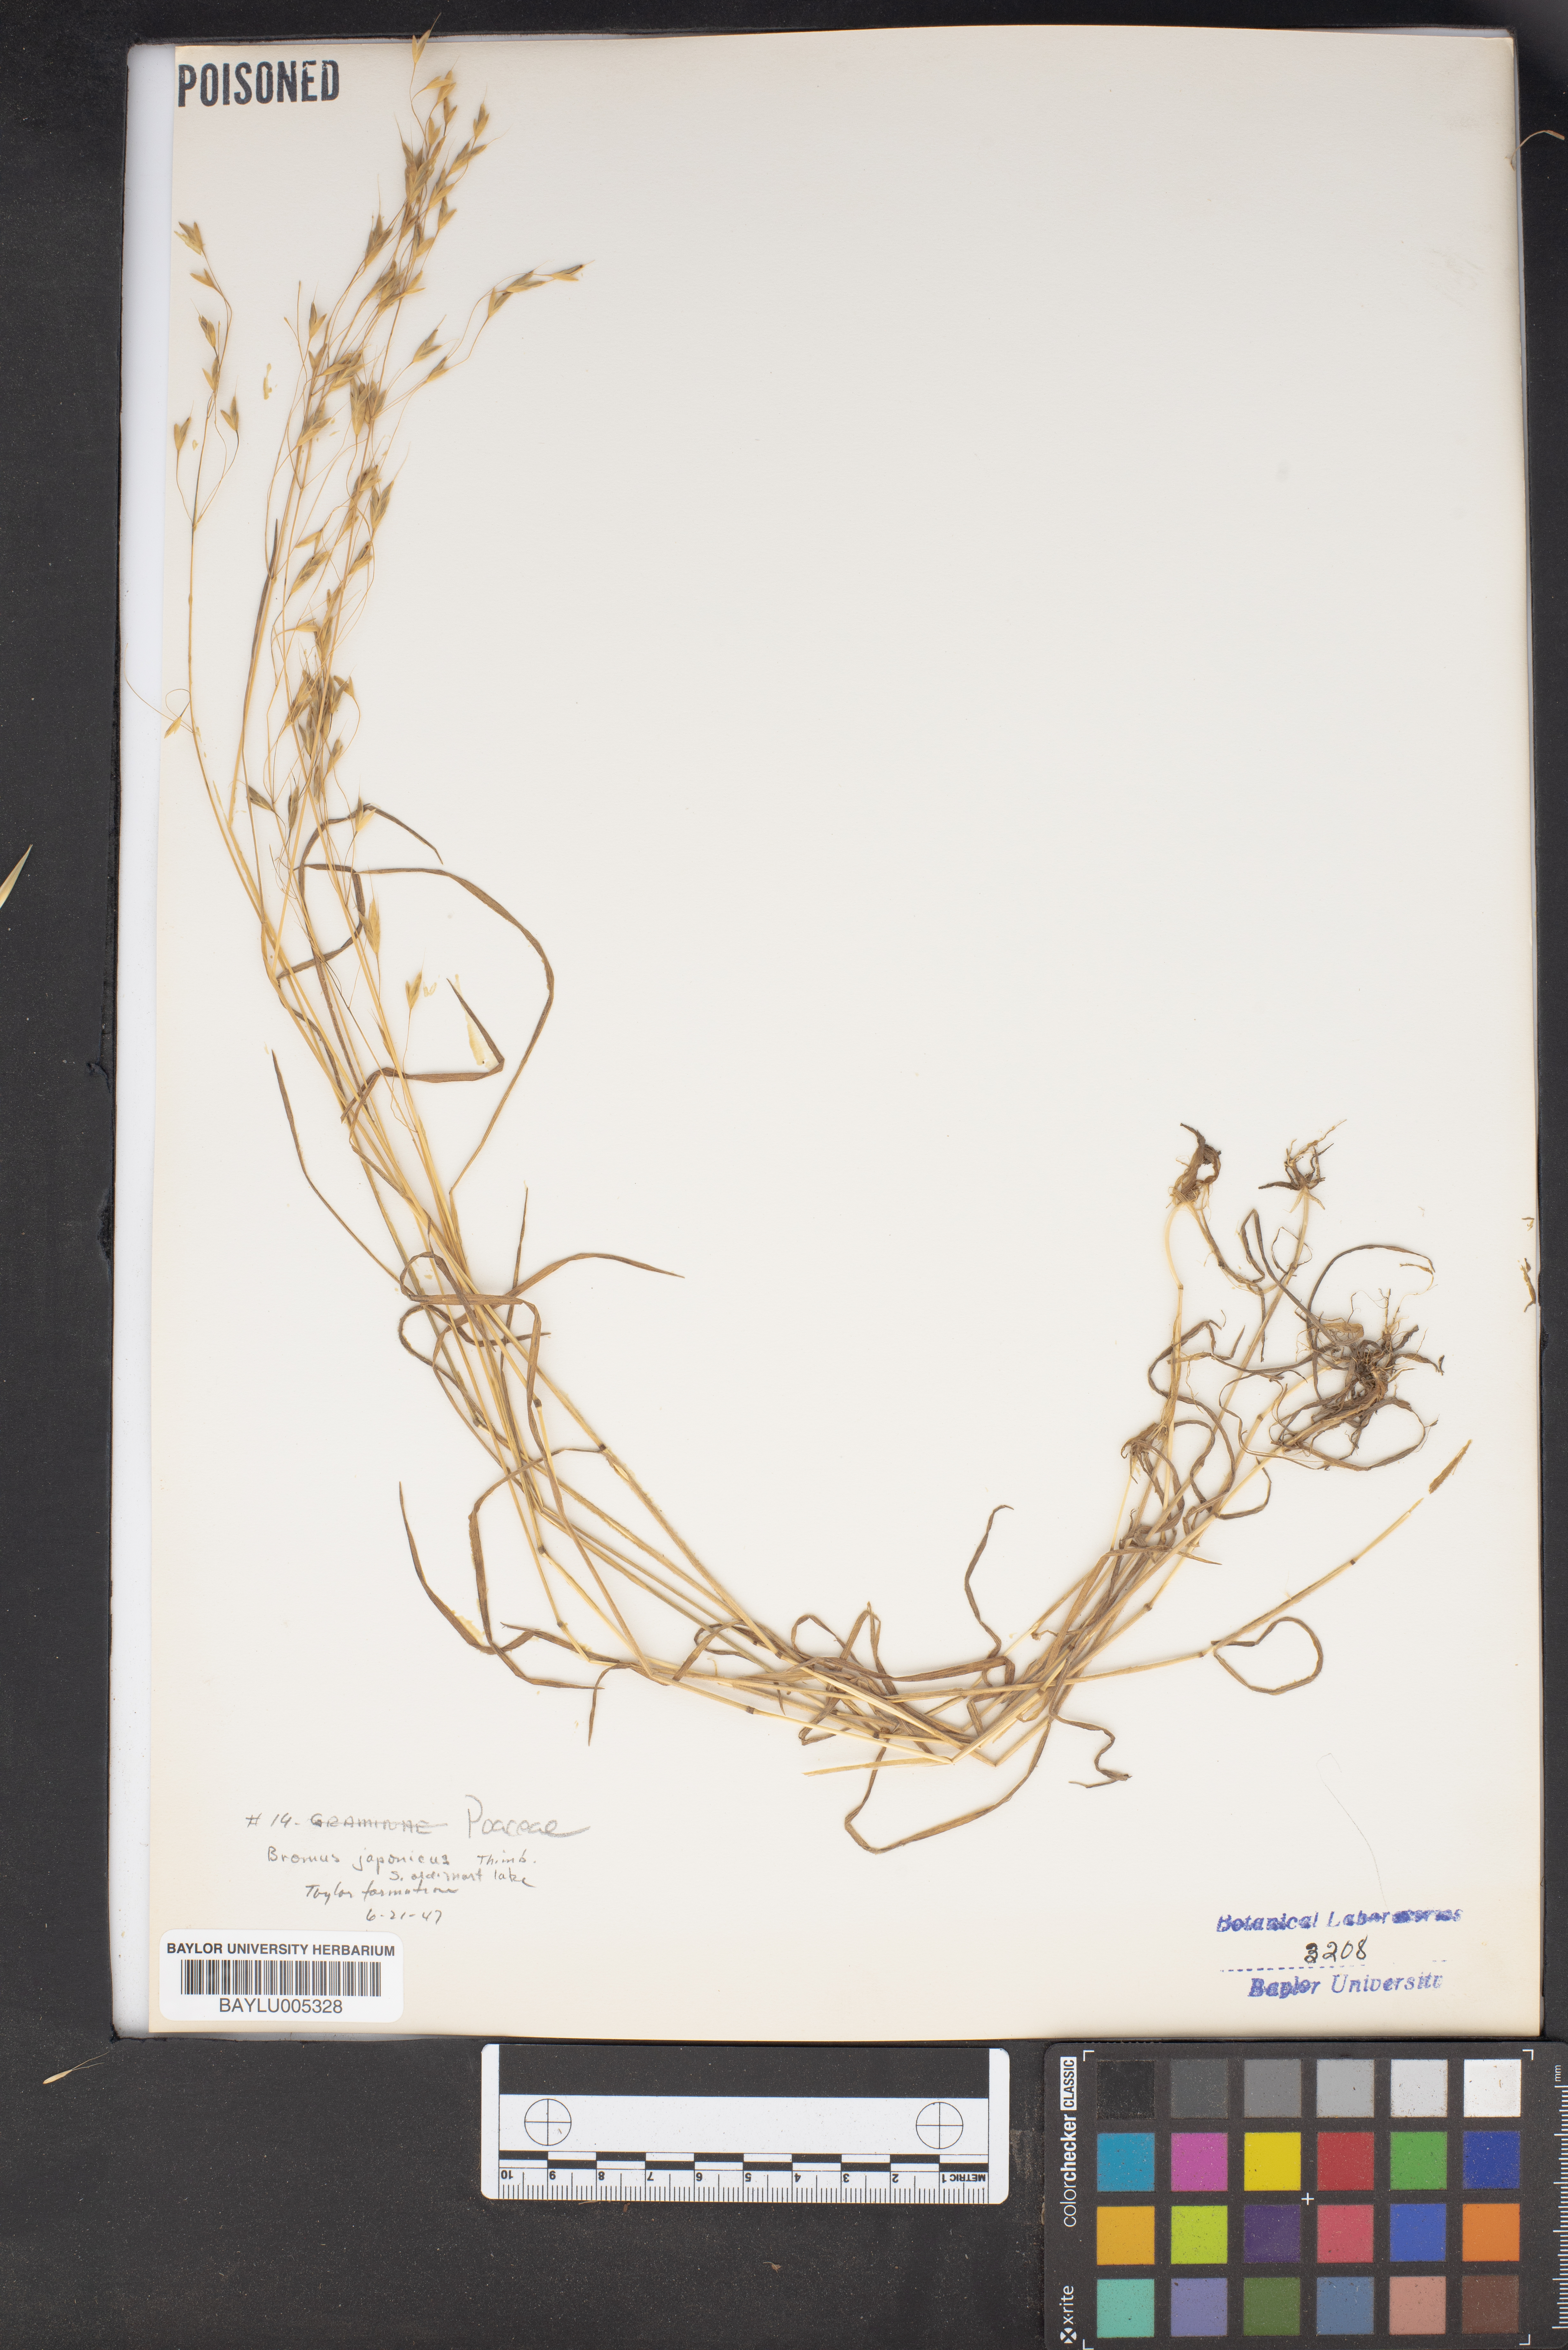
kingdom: Plantae
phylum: Tracheophyta
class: Liliopsida
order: Poales
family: Poaceae
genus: Bromus
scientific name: Bromus japonicus
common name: Japanese brome
